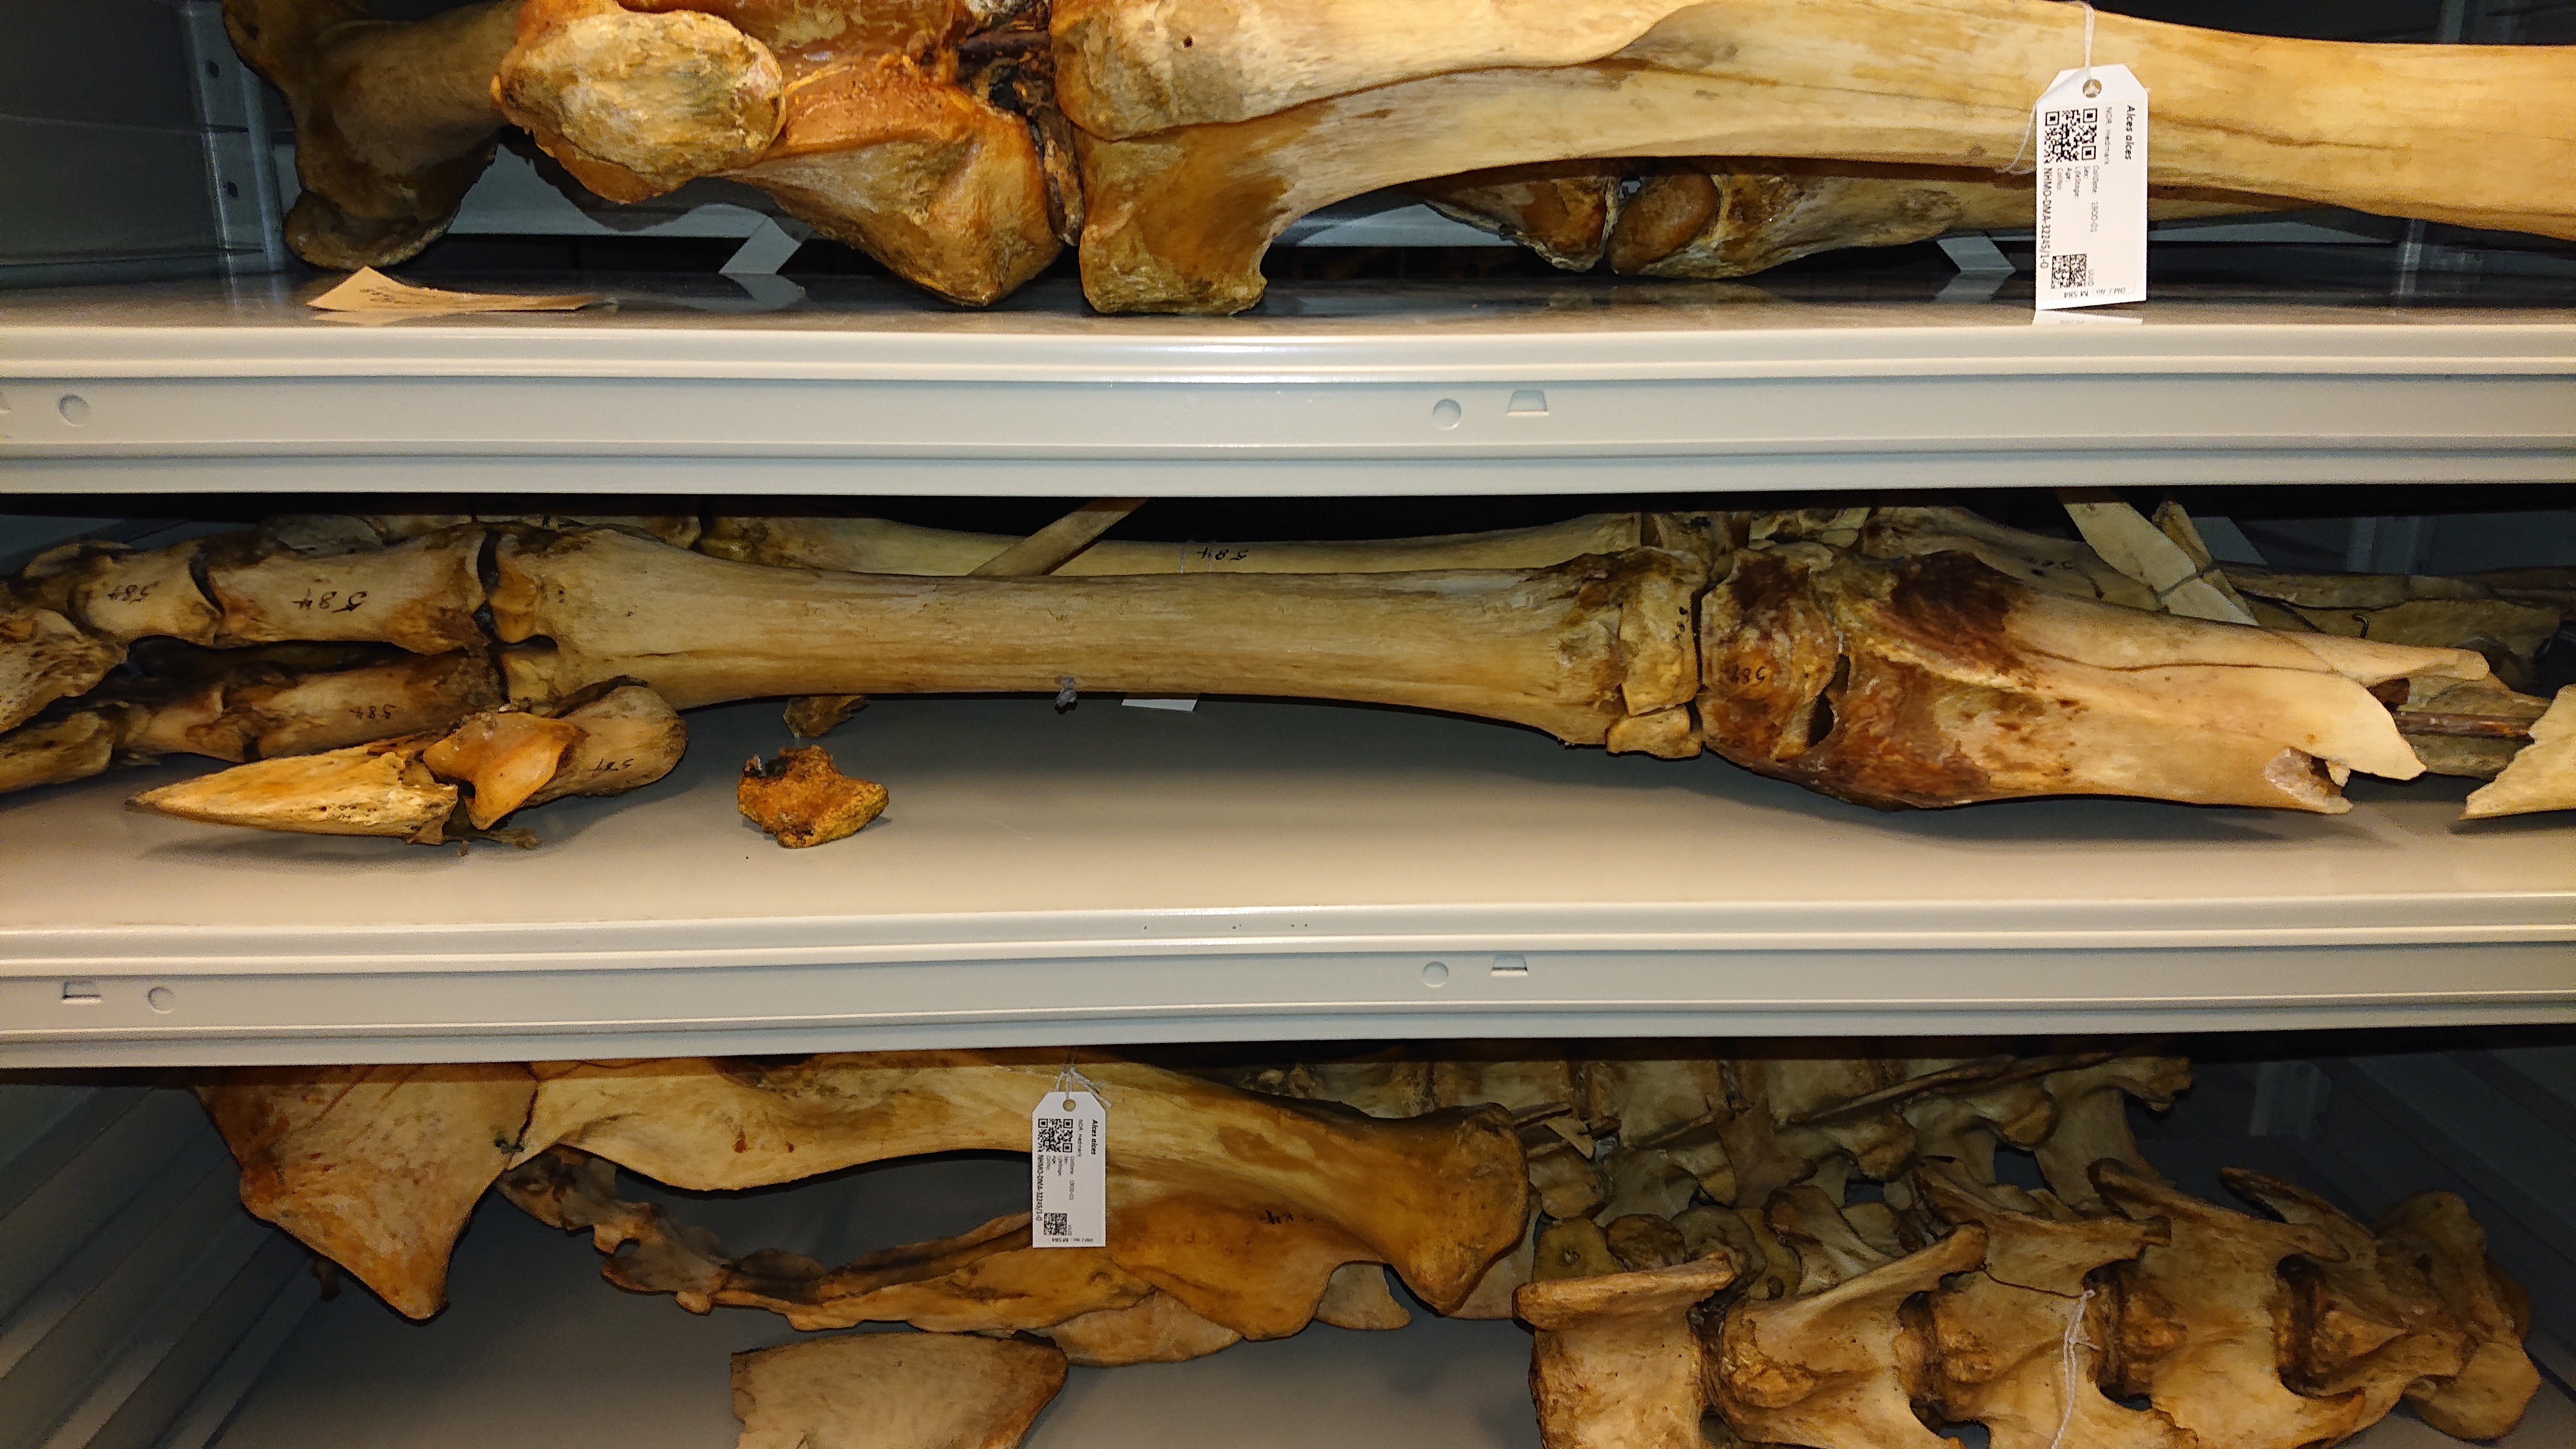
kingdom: Animalia
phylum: Chordata
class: Mammalia
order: Artiodactyla
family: Cervidae
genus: Alces
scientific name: Alces alces
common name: Moose
